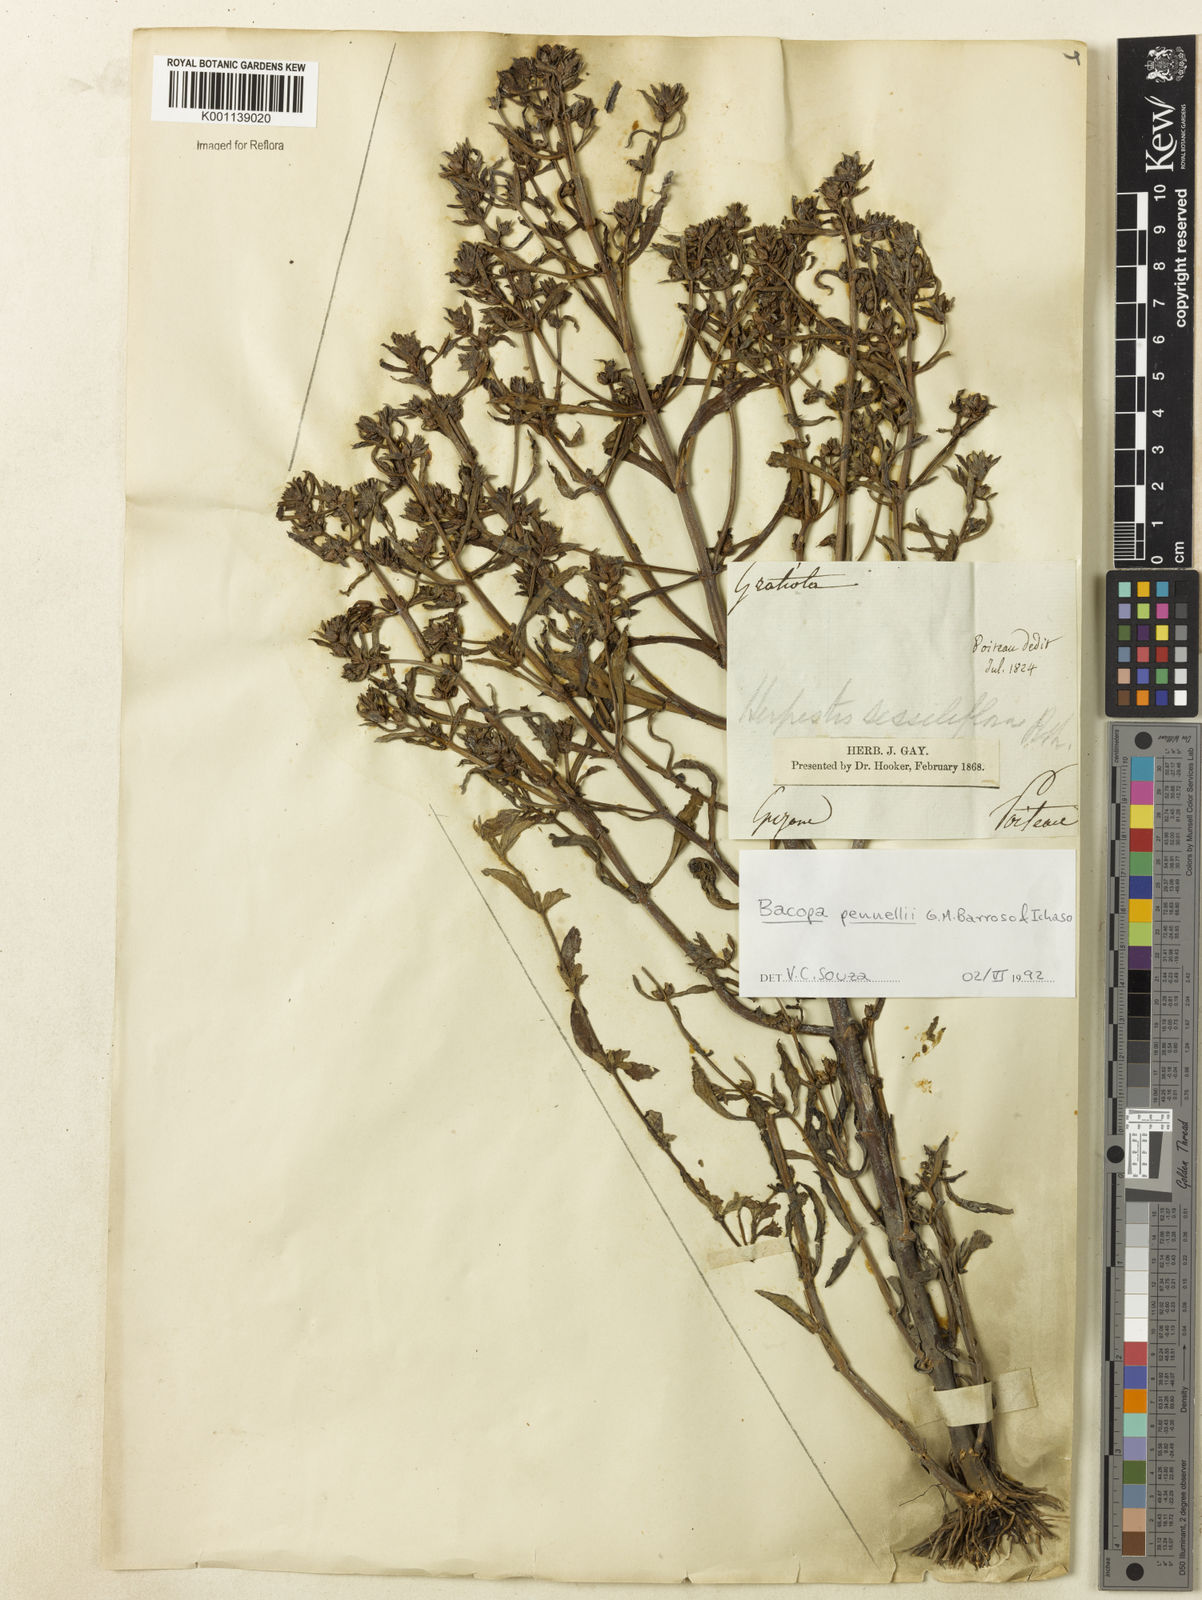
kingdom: Plantae
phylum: Tracheophyta
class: Magnoliopsida
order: Lamiales
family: Plantaginaceae
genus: Bacopa
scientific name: Bacopa pennellii
